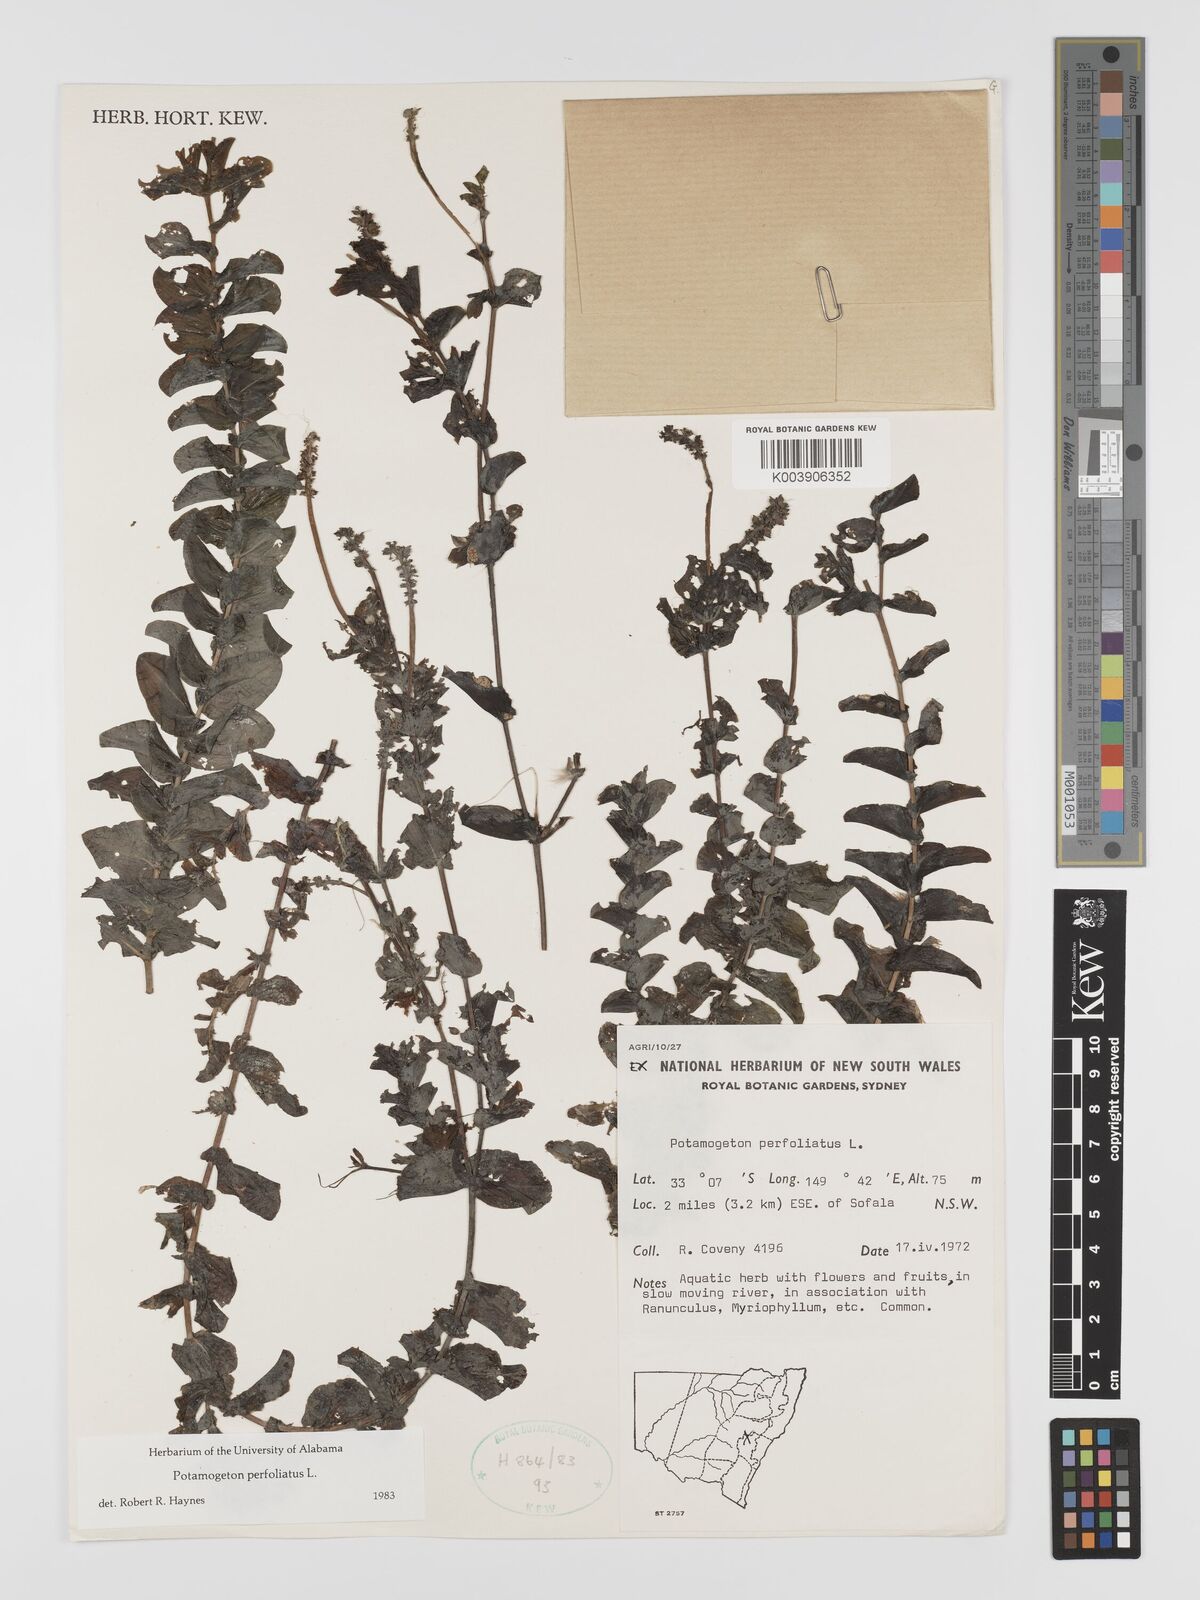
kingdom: Plantae
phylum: Tracheophyta
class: Liliopsida
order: Alismatales
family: Potamogetonaceae
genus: Potamogeton
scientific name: Potamogeton perfoliatus
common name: Perfoliate pondweed
